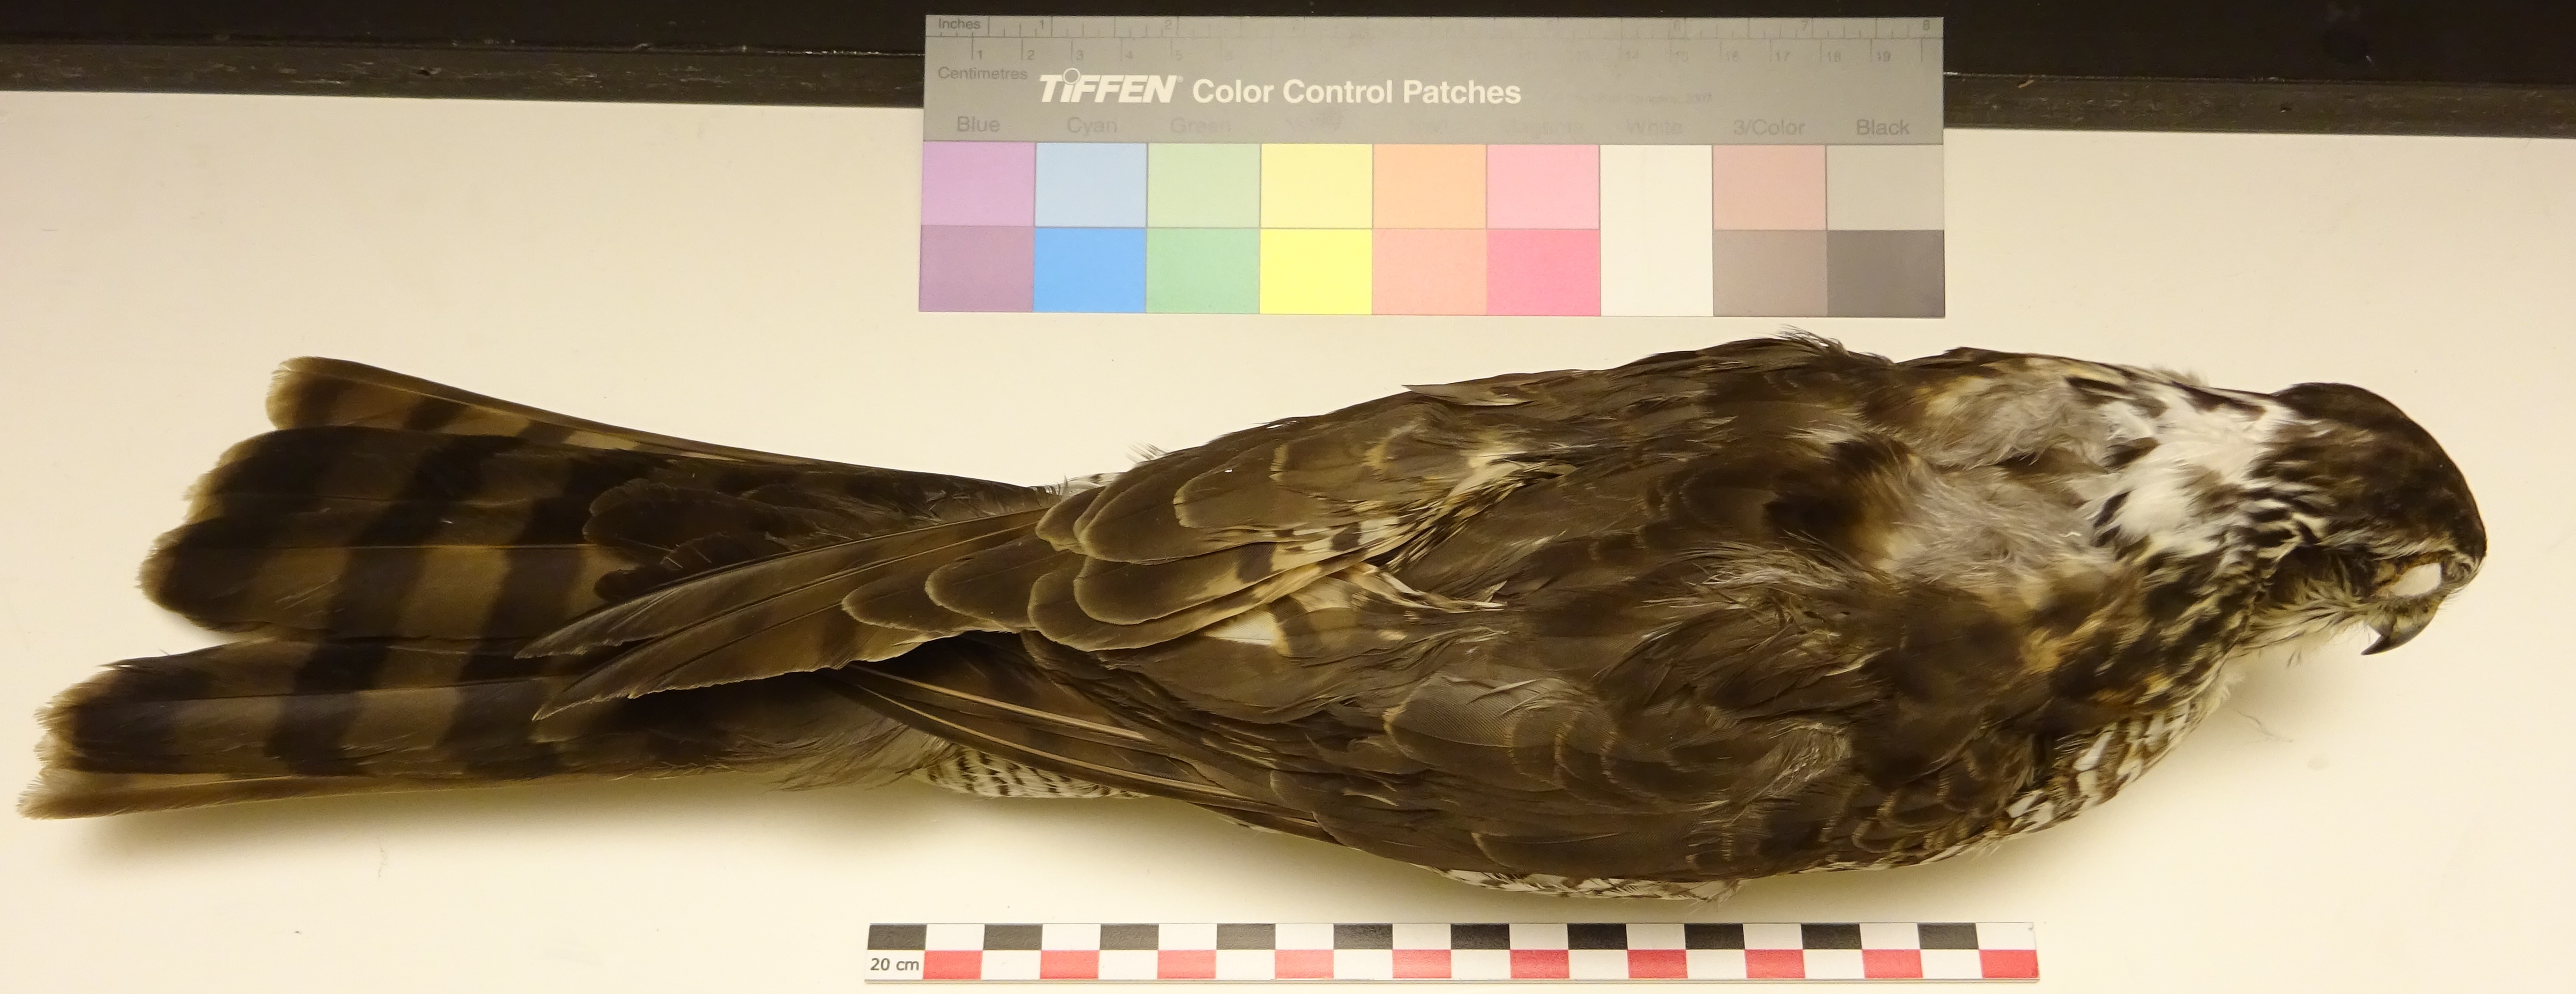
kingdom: Animalia
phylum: Chordata
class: Aves
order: Accipitriformes
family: Accipitridae
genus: Accipiter
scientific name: Accipiter nisus
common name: Eurasian sparrowhawk
